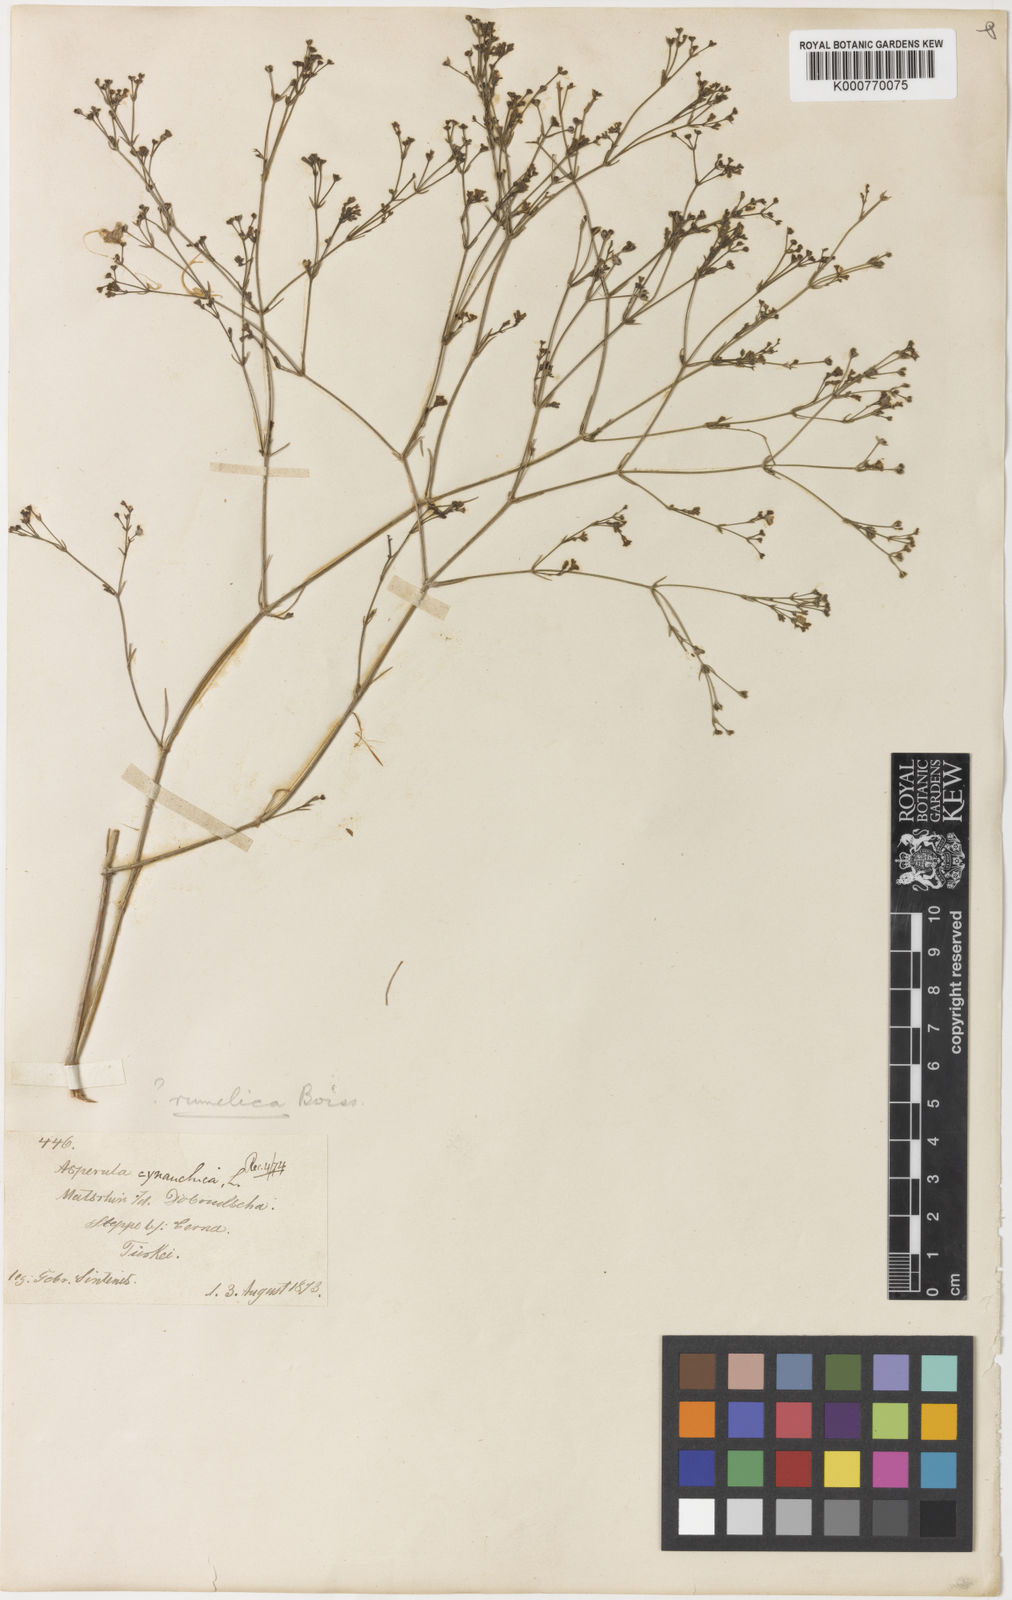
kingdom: Plantae
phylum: Tracheophyta
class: Magnoliopsida
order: Gentianales
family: Rubiaceae
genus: Cynanchica
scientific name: Cynanchica tenella
